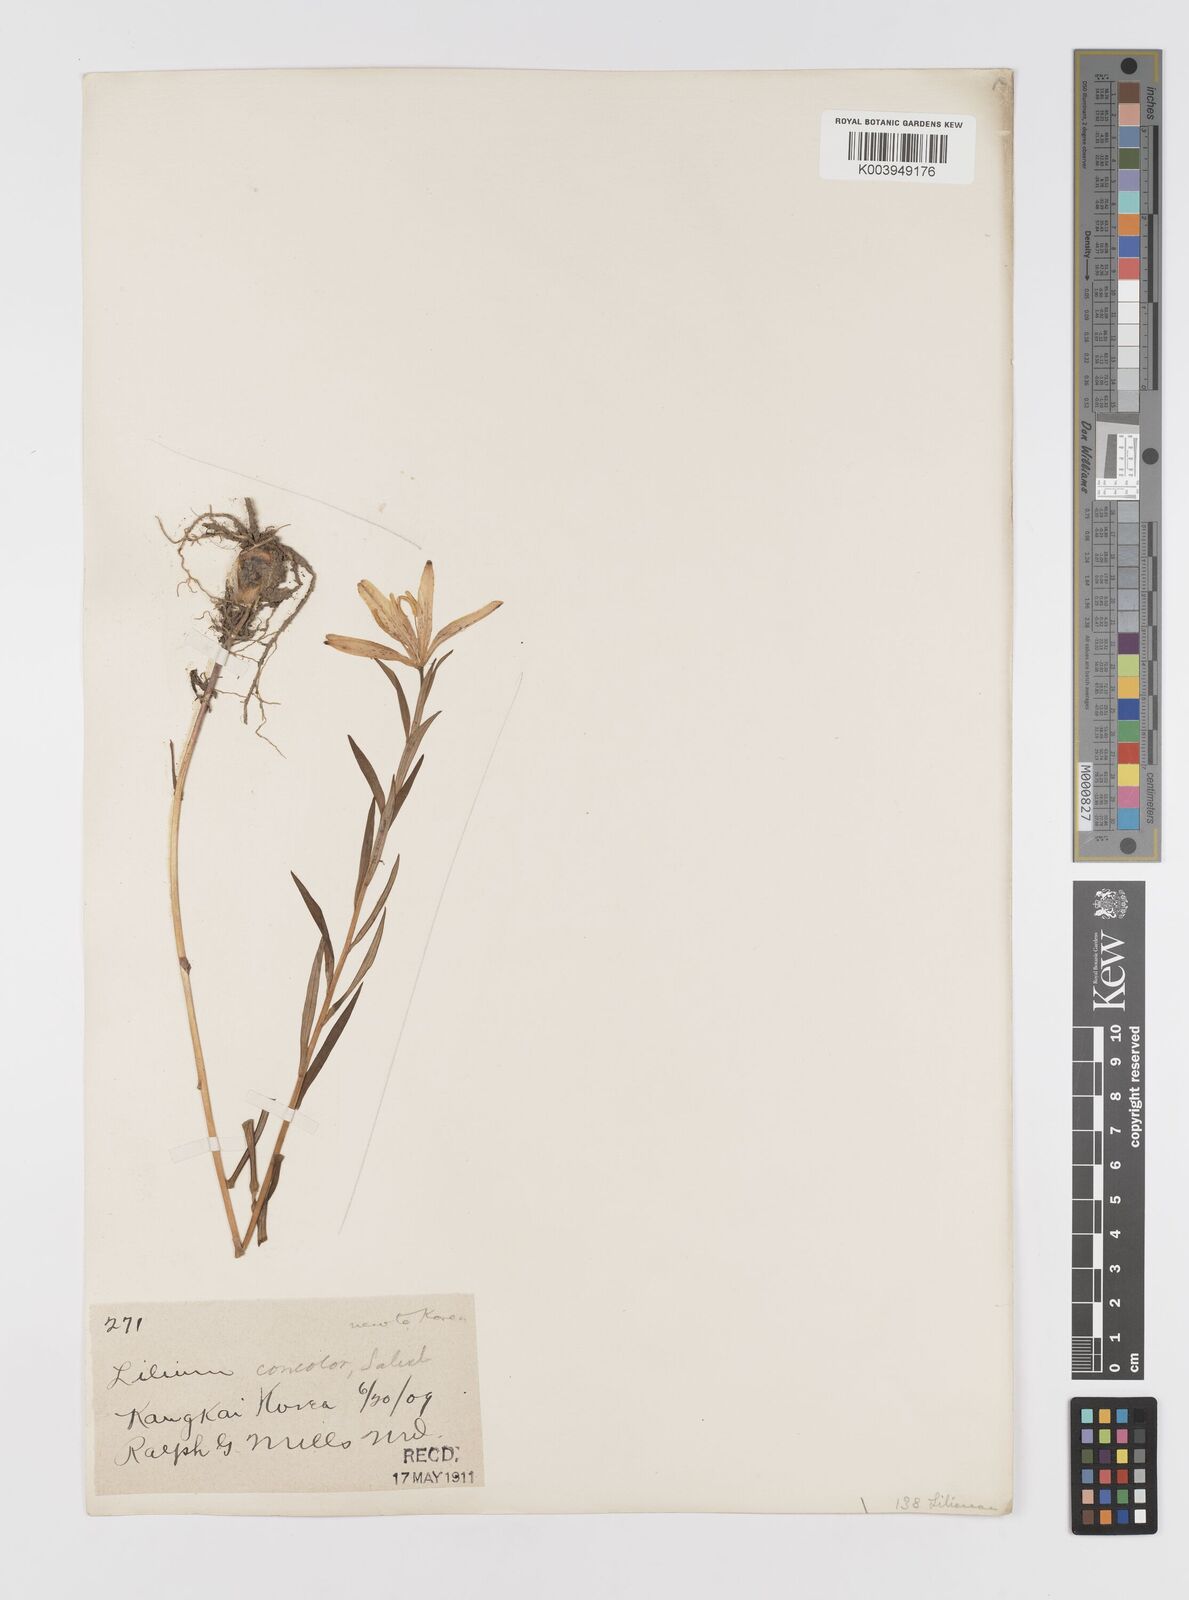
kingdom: Plantae
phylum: Tracheophyta
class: Liliopsida
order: Liliales
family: Liliaceae
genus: Lilium
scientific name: Lilium concolor
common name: Morning-star lily
